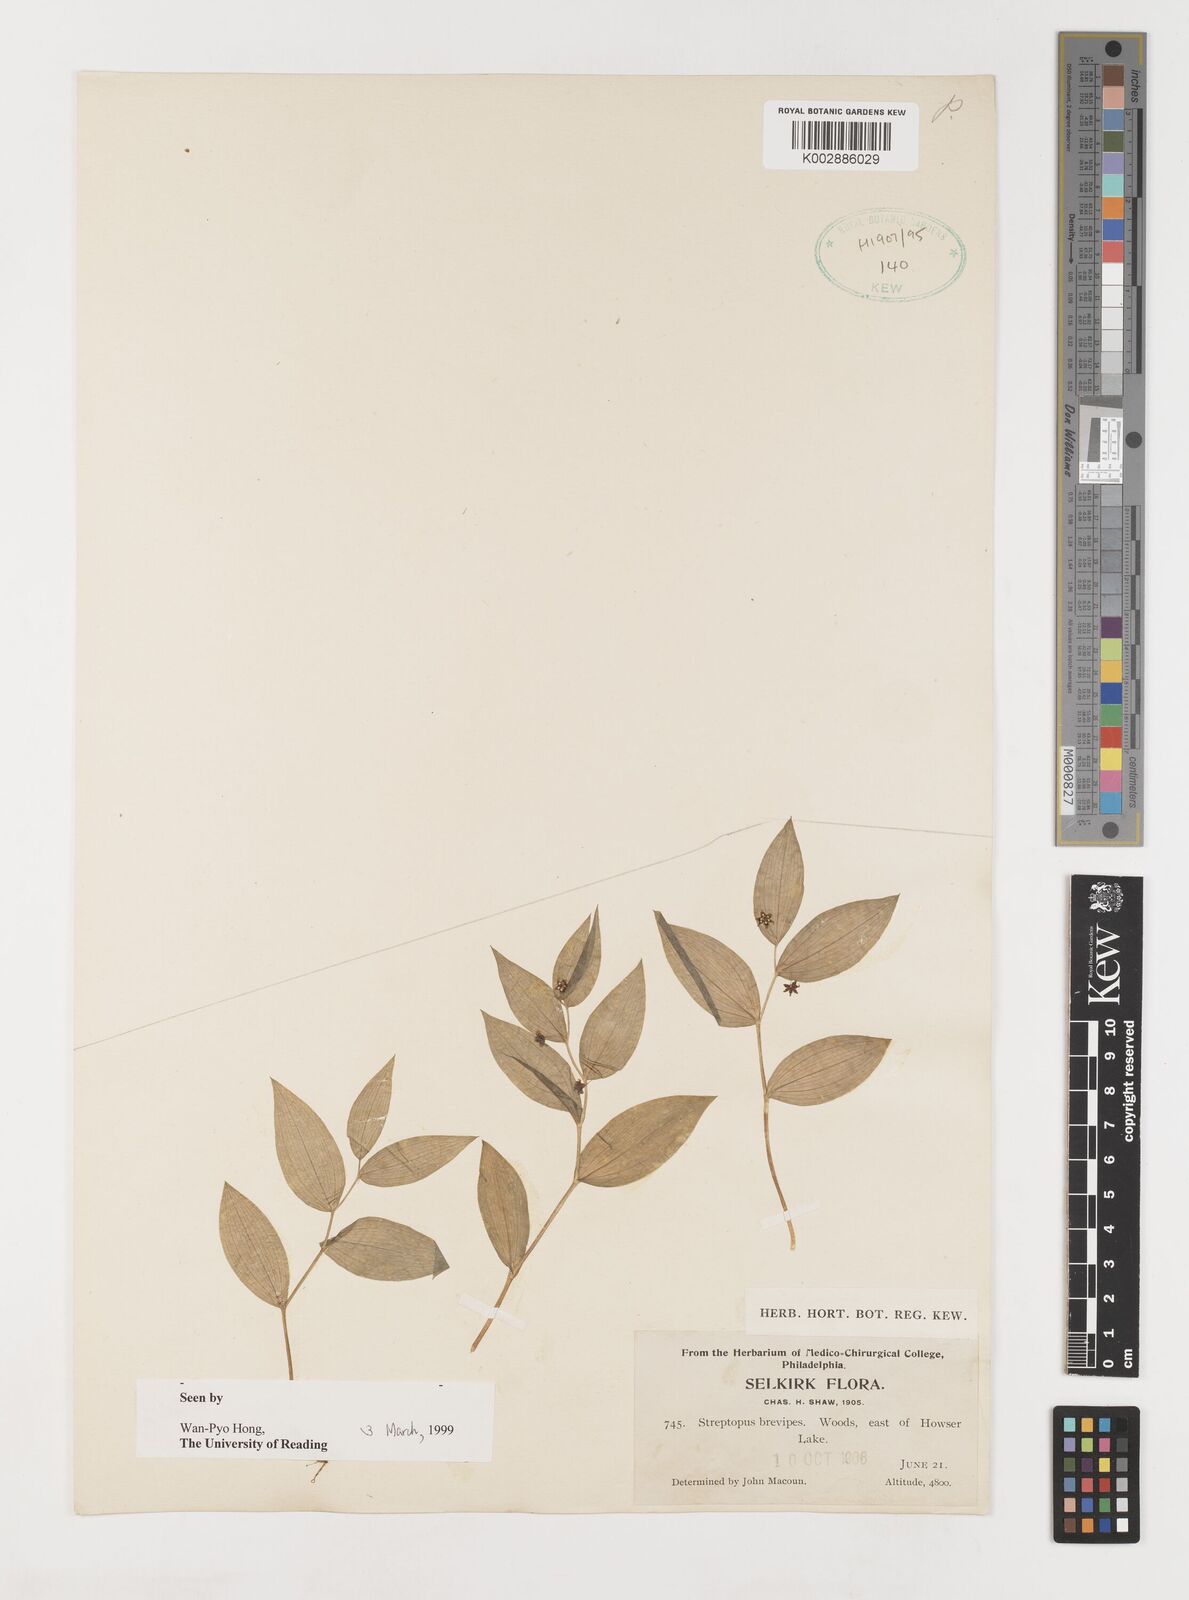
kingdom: Plantae
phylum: Tracheophyta
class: Liliopsida
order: Liliales
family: Liliaceae
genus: Streptopus
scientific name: Streptopus streptopoides
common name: Small twisted-stalk
